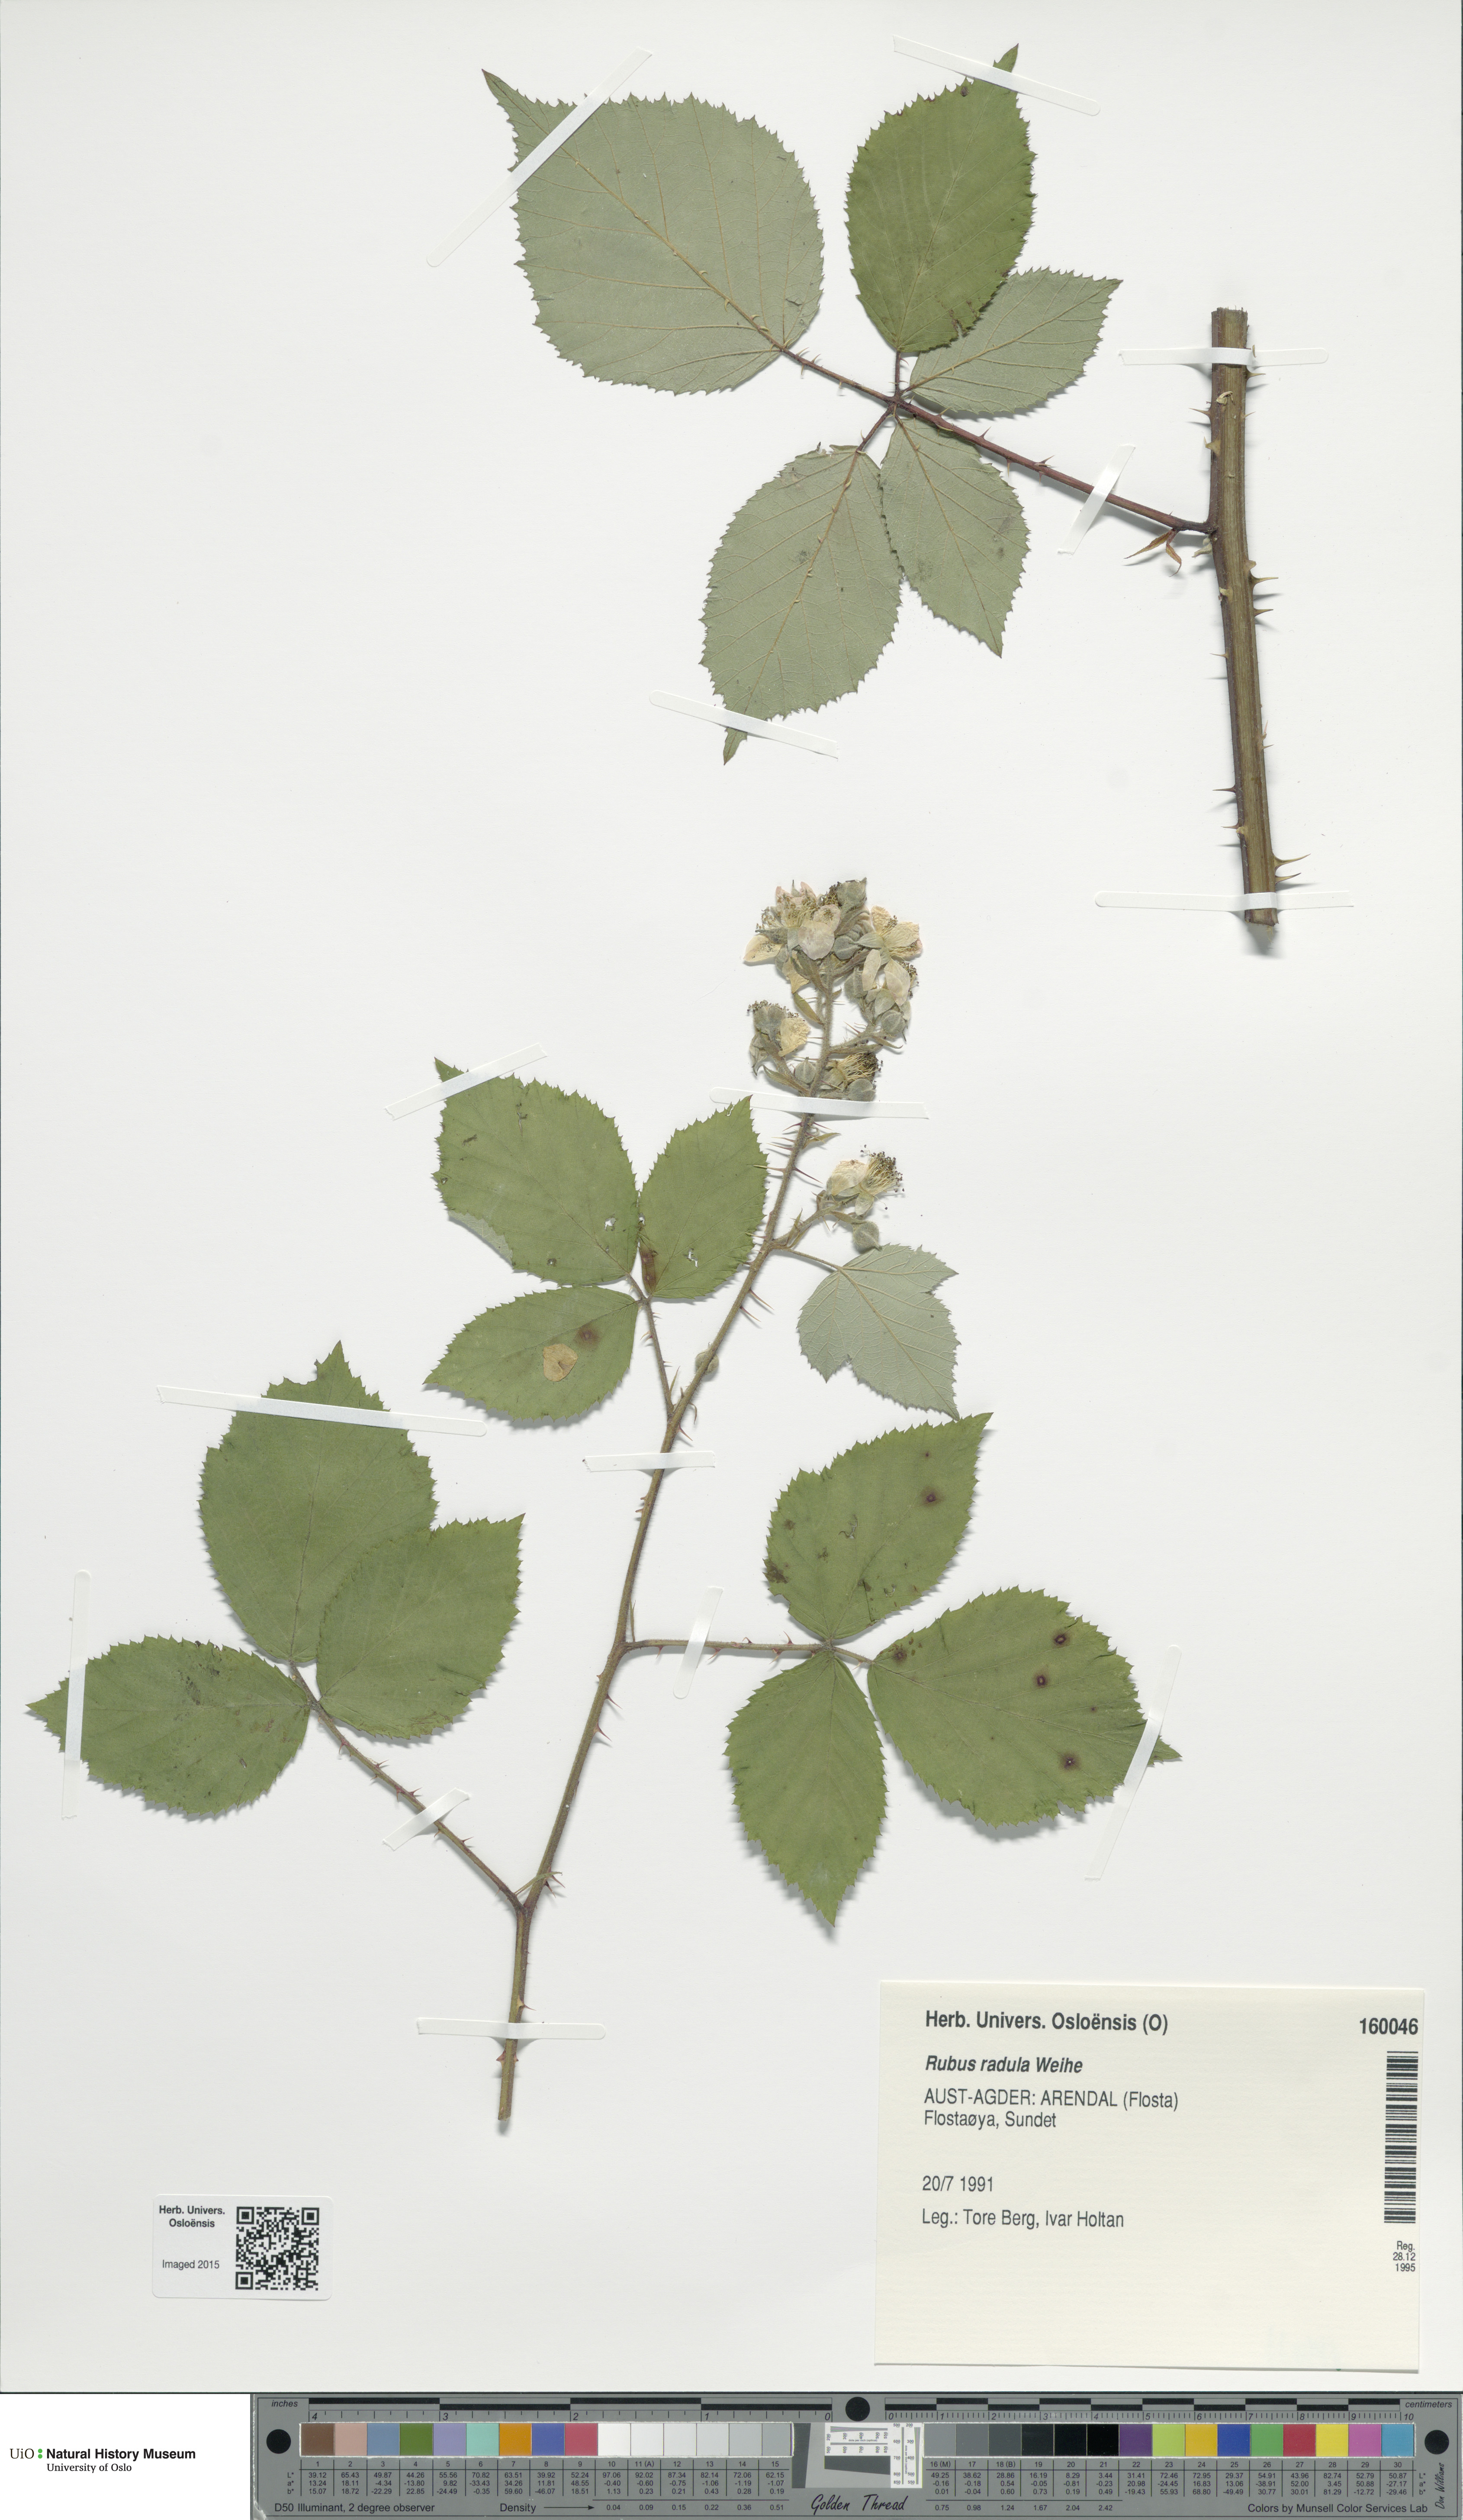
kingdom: Plantae
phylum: Tracheophyta
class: Magnoliopsida
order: Rosales
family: Rosaceae
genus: Rubus
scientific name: Rubus radula
